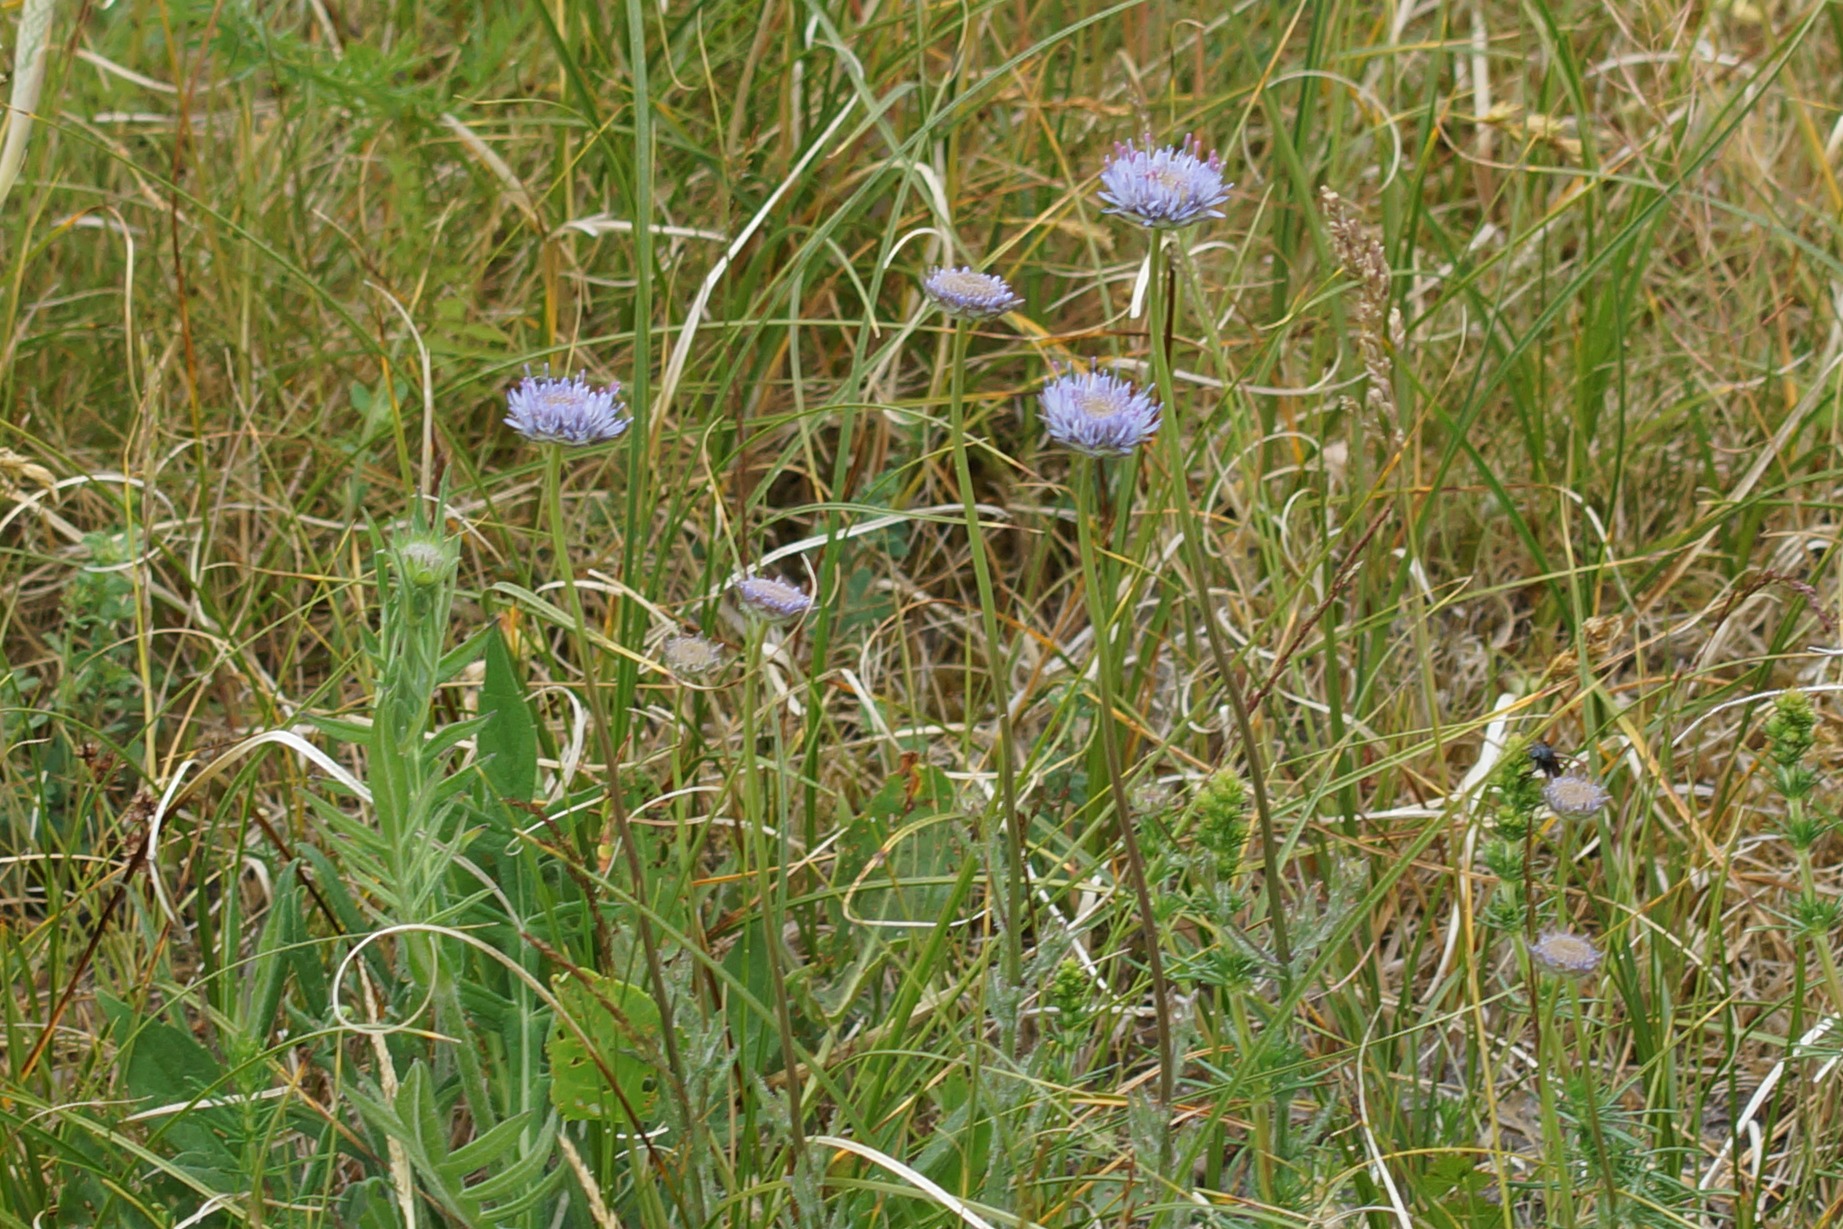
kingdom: Plantae
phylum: Tracheophyta
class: Magnoliopsida
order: Asterales
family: Campanulaceae
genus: Jasione
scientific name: Jasione montana
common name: Blåmunke
